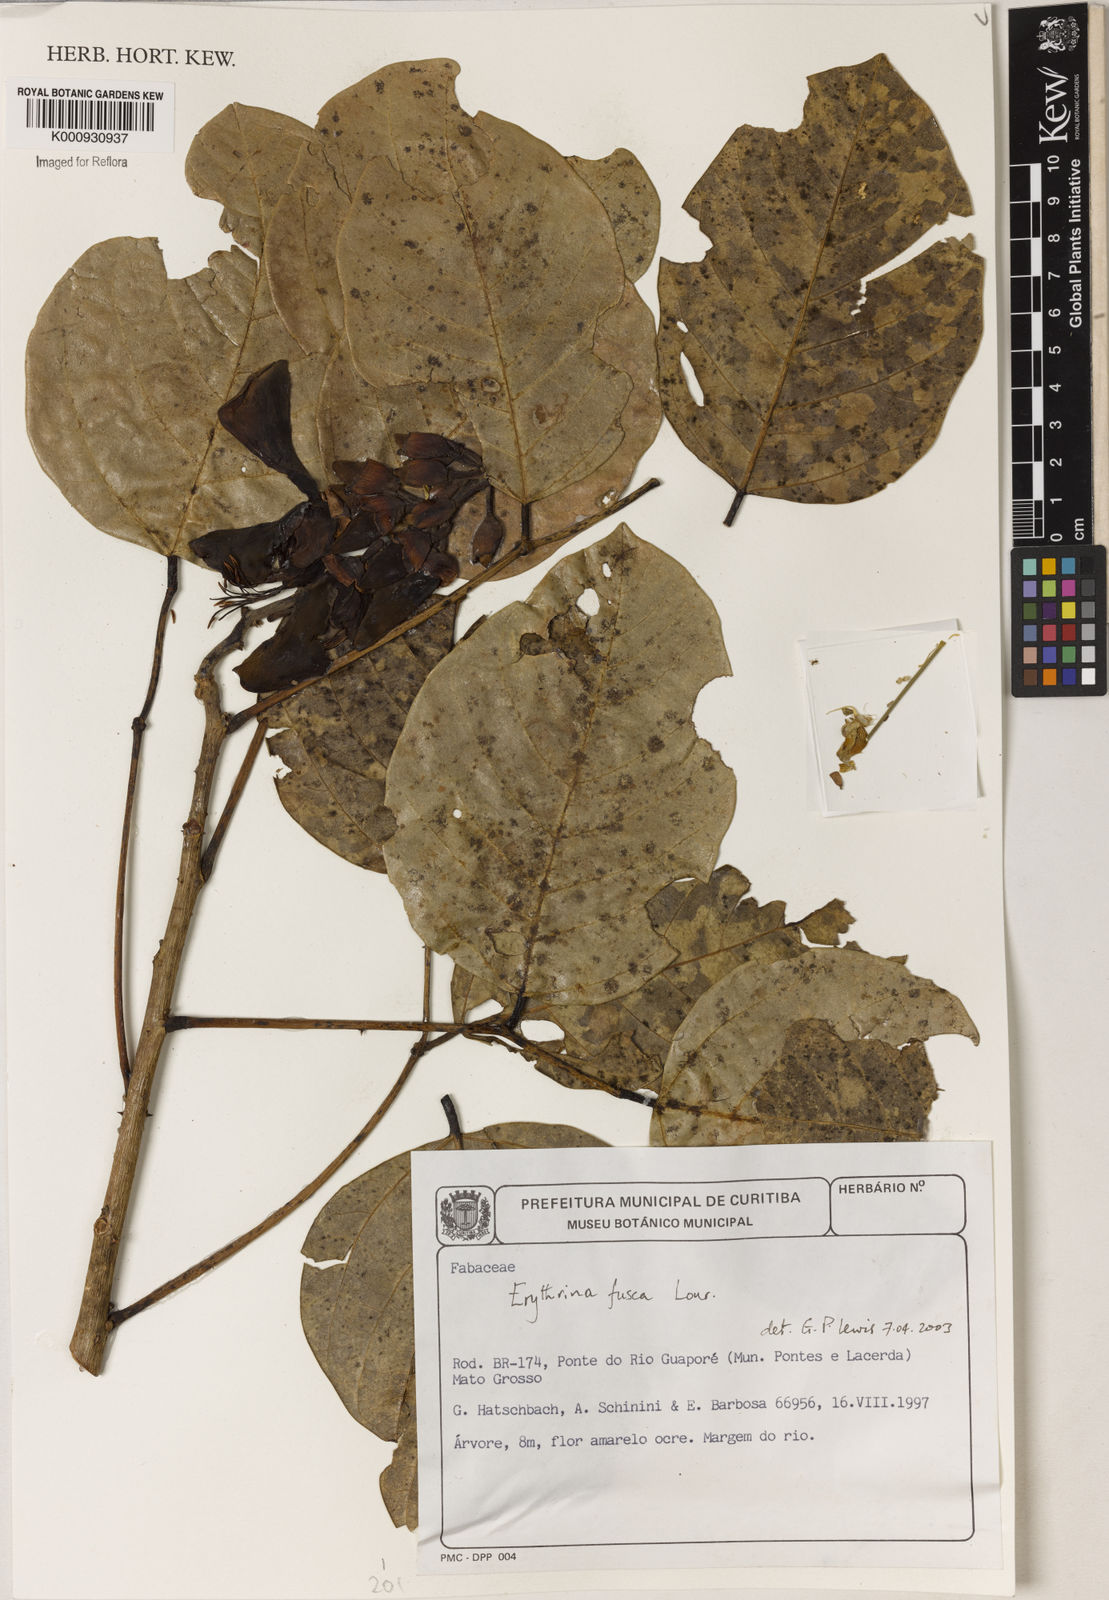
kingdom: Plantae
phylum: Tracheophyta
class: Magnoliopsida
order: Fabales
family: Fabaceae
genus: Erythrina
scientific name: Erythrina fusca
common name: Coral-bean
